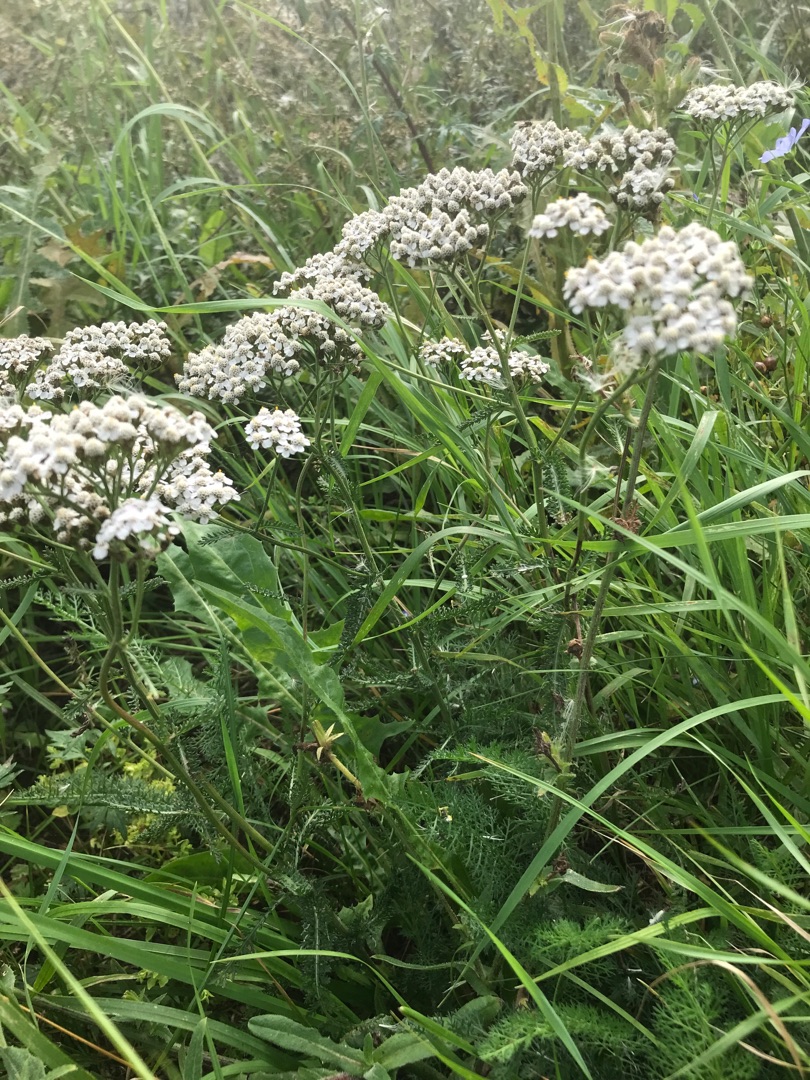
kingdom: Plantae
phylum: Tracheophyta
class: Magnoliopsida
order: Asterales
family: Asteraceae
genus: Achillea
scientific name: Achillea millefolium
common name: Almindelig røllike
